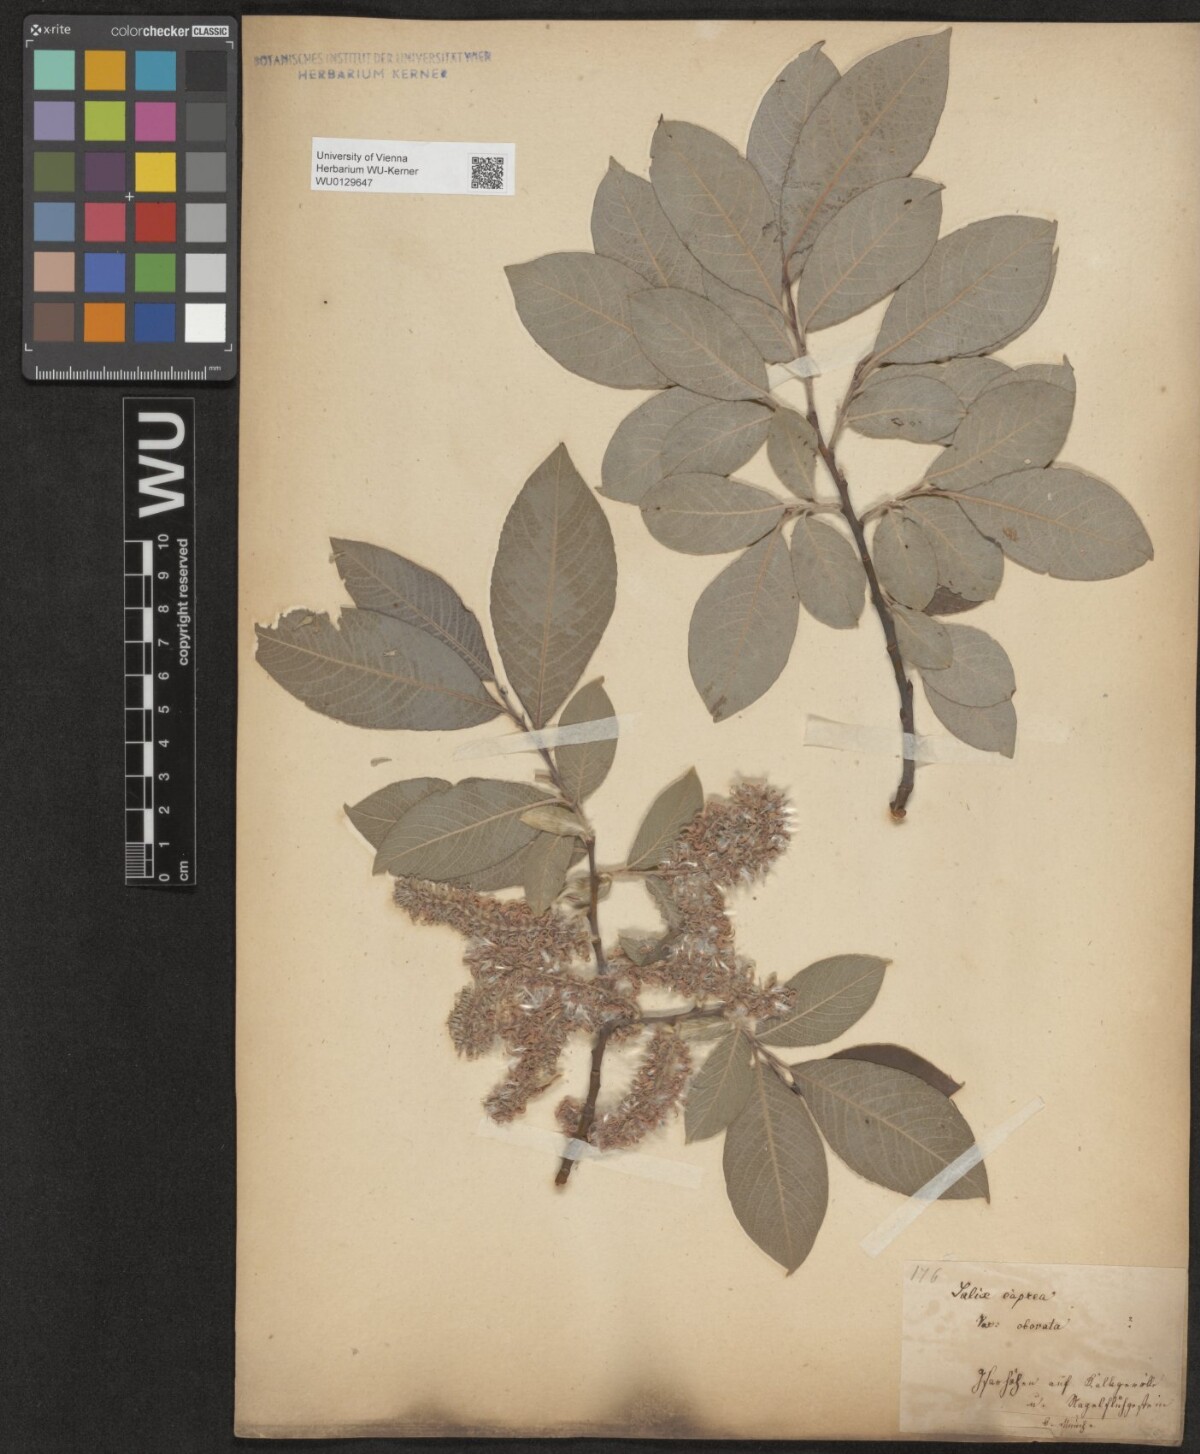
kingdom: Plantae
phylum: Tracheophyta
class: Magnoliopsida
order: Malpighiales
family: Salicaceae
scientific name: Salicaceae
